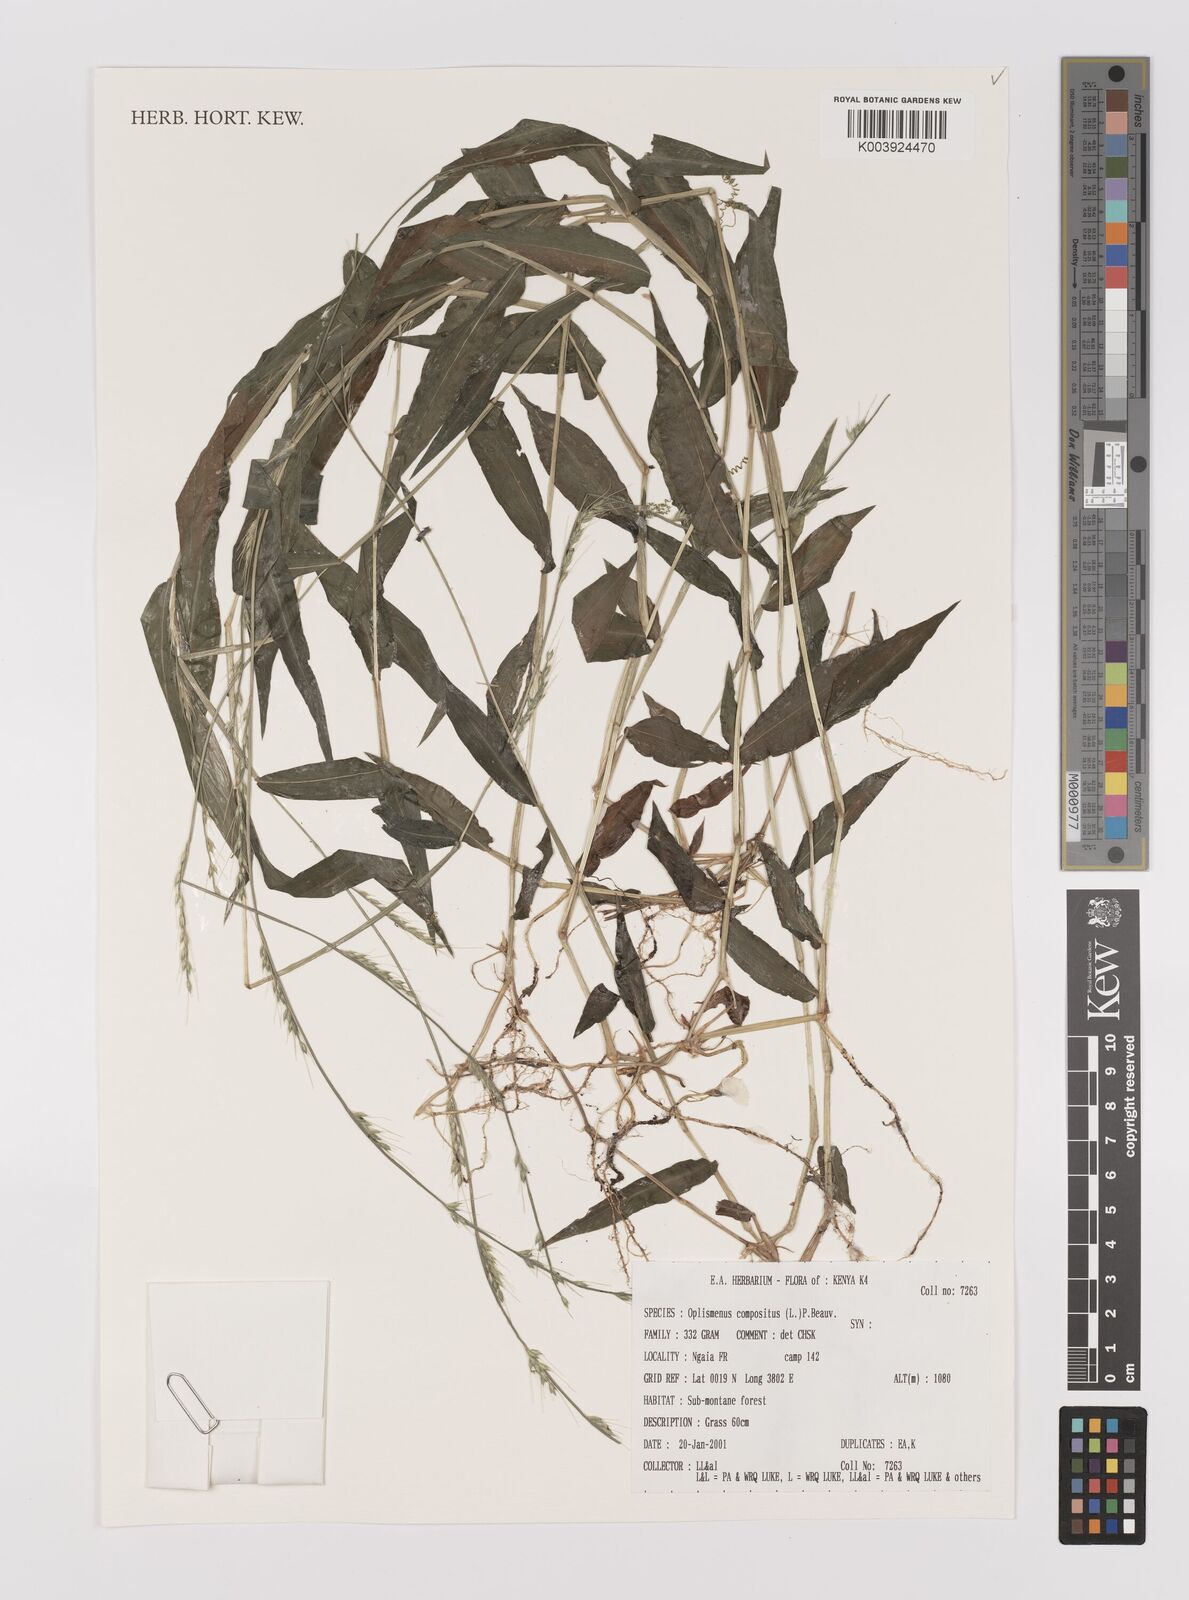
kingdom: Plantae
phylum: Tracheophyta
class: Liliopsida
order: Poales
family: Poaceae
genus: Oplismenus
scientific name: Oplismenus compositus
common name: Running mountain grass
